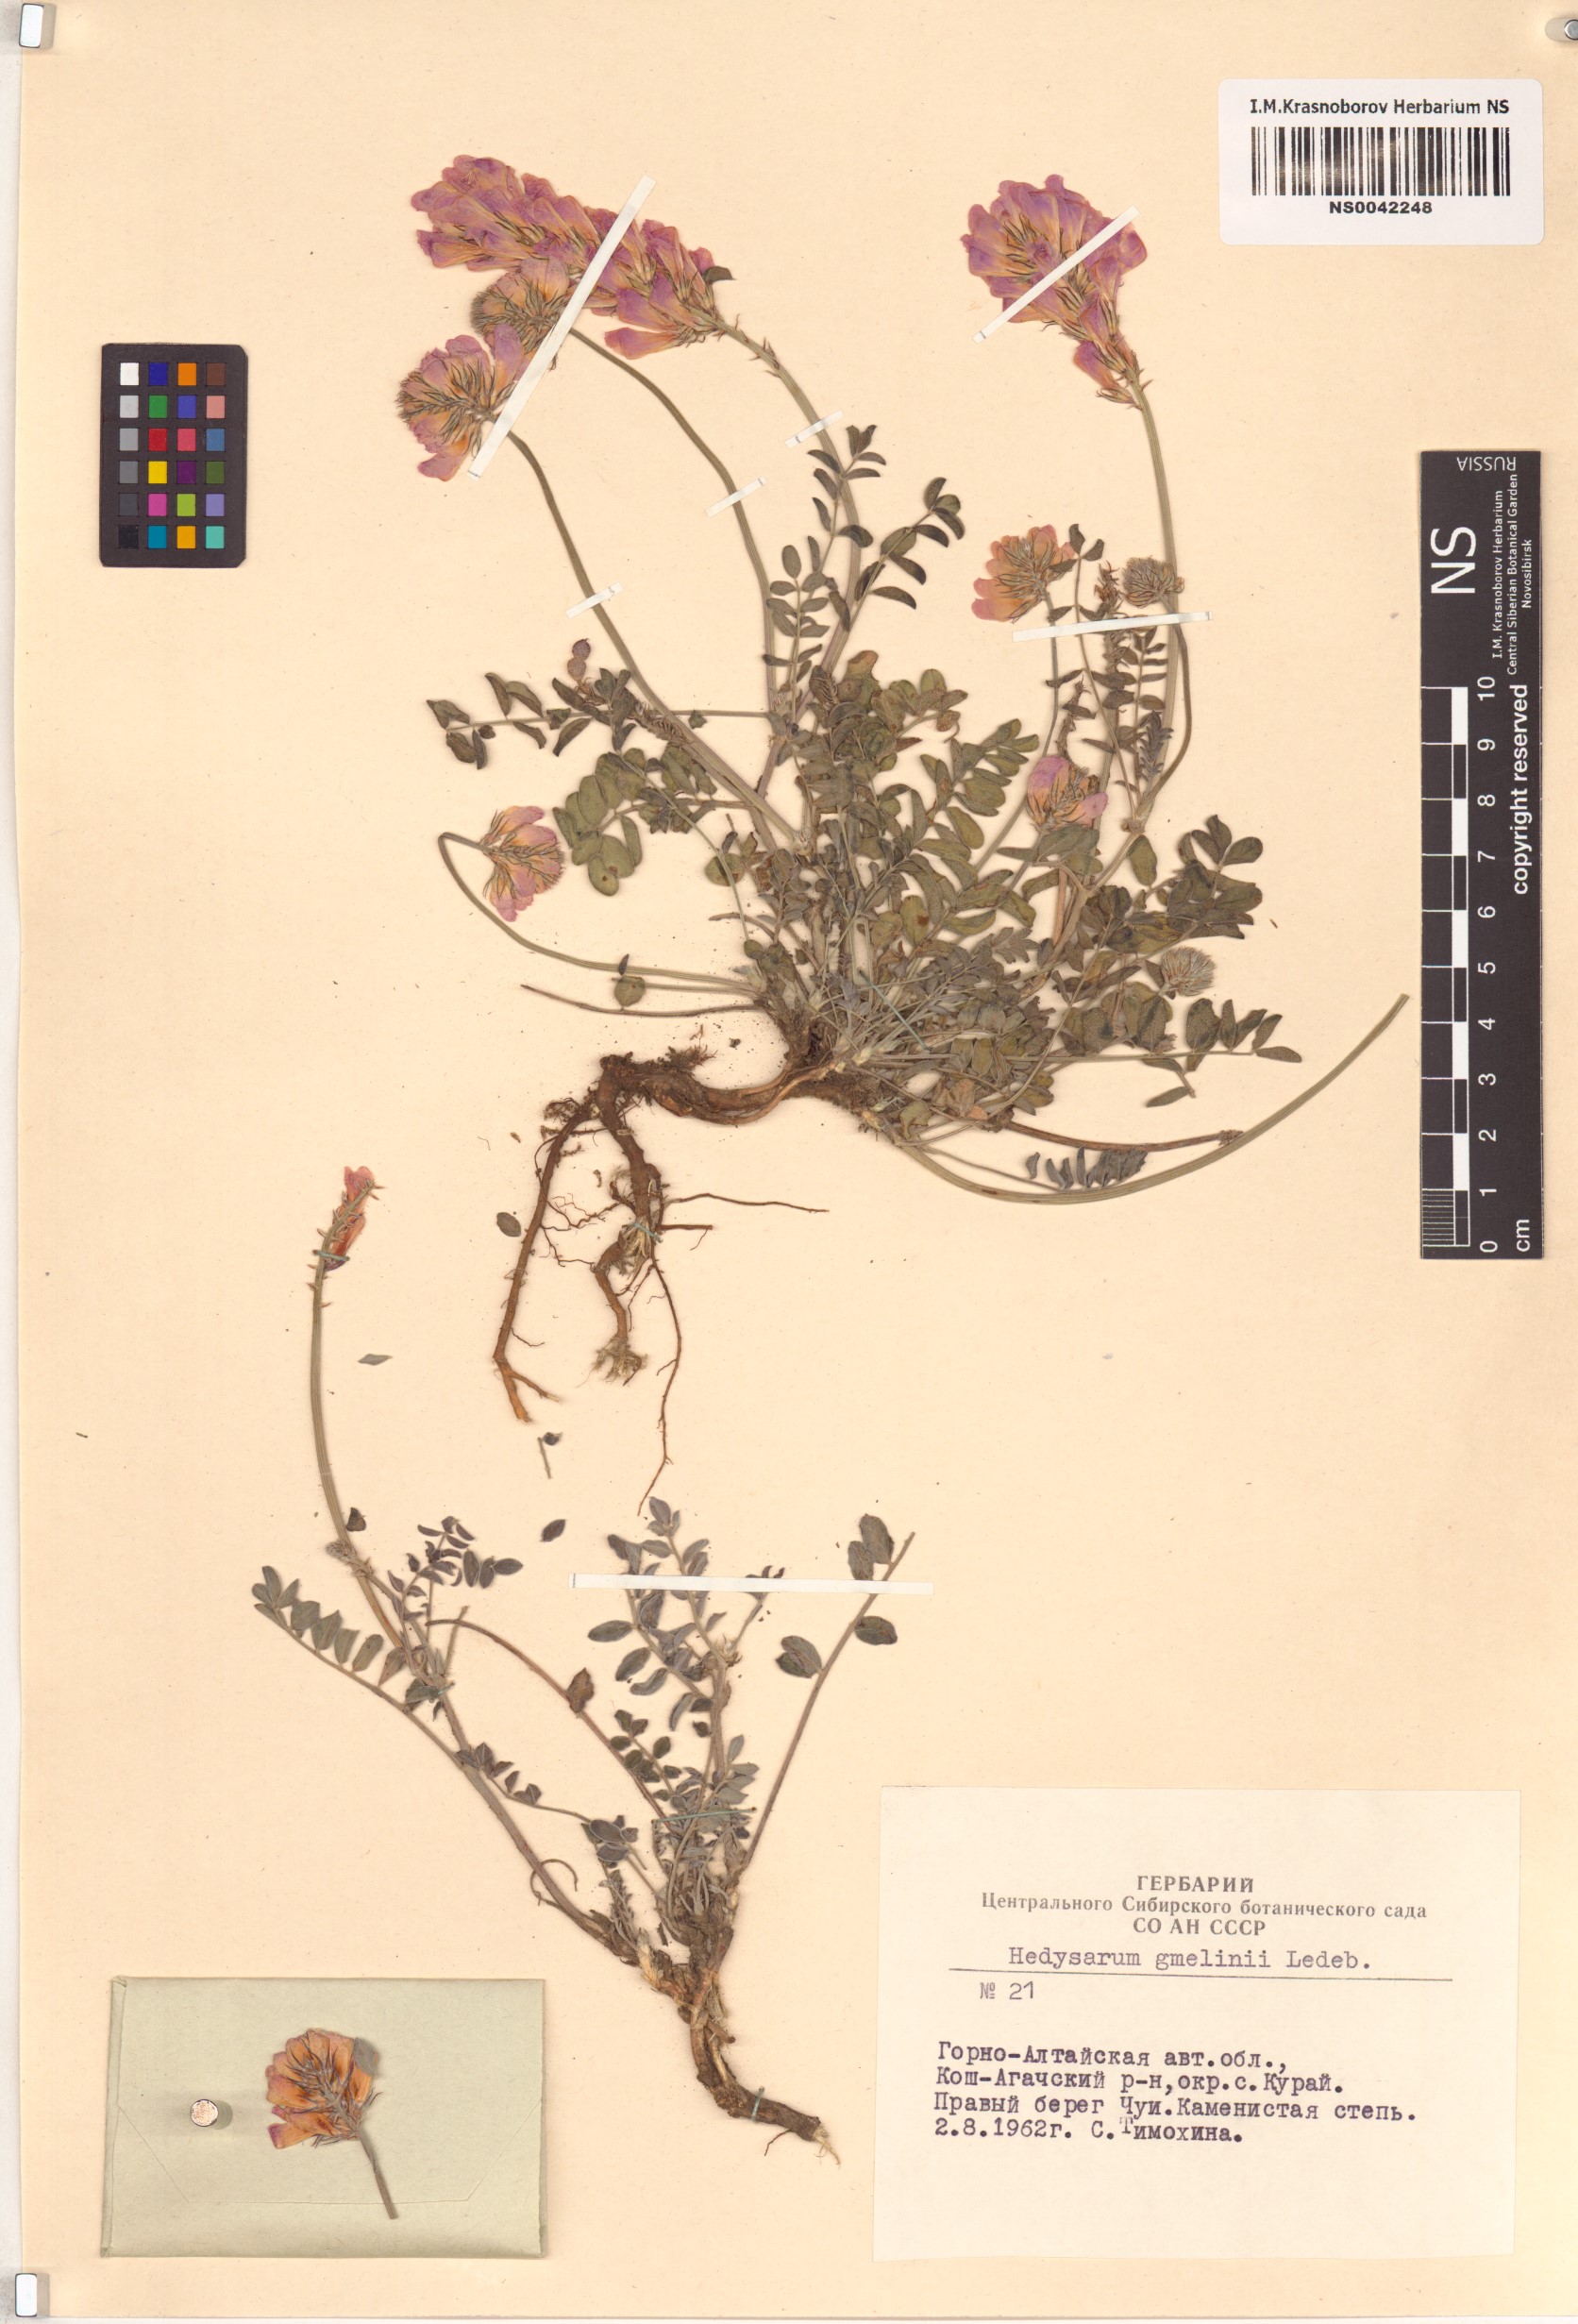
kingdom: Plantae
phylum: Tracheophyta
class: Magnoliopsida
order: Fabales
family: Fabaceae
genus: Hedysarum
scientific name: Hedysarum gmelinii
